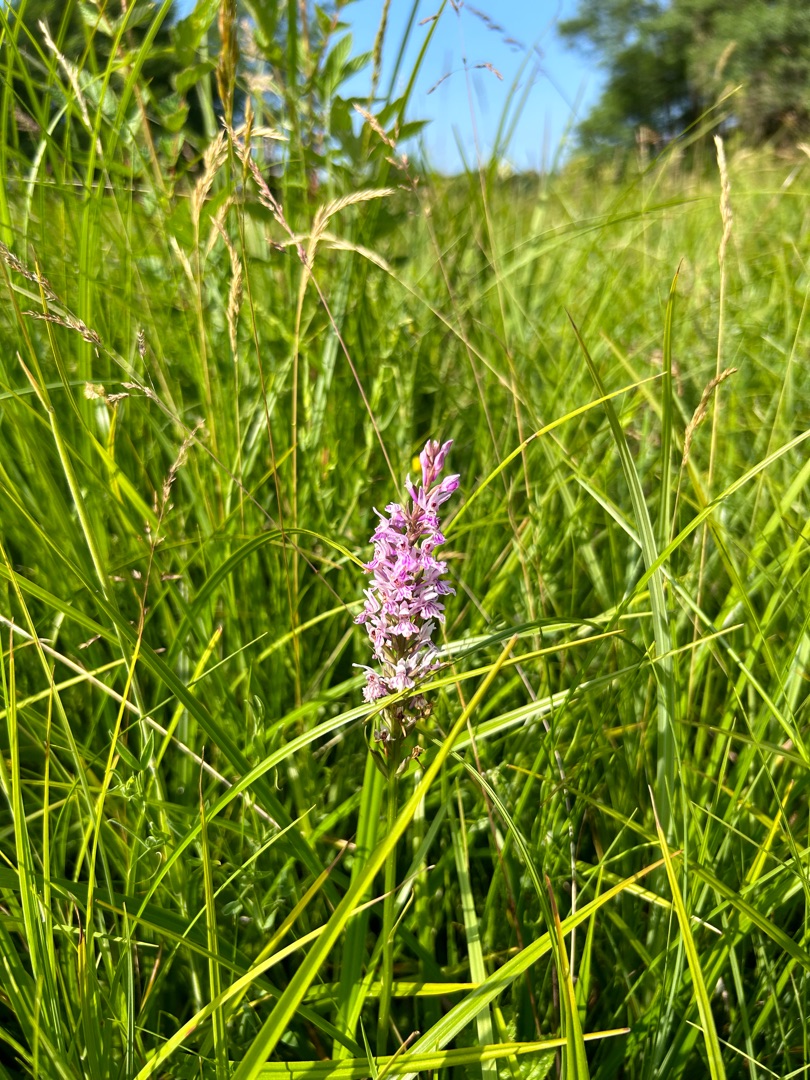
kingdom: Plantae
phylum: Tracheophyta
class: Liliopsida
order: Asparagales
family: Orchidaceae
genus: Dactylorhiza
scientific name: Dactylorhiza maculata
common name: Skov-gøgeurt
